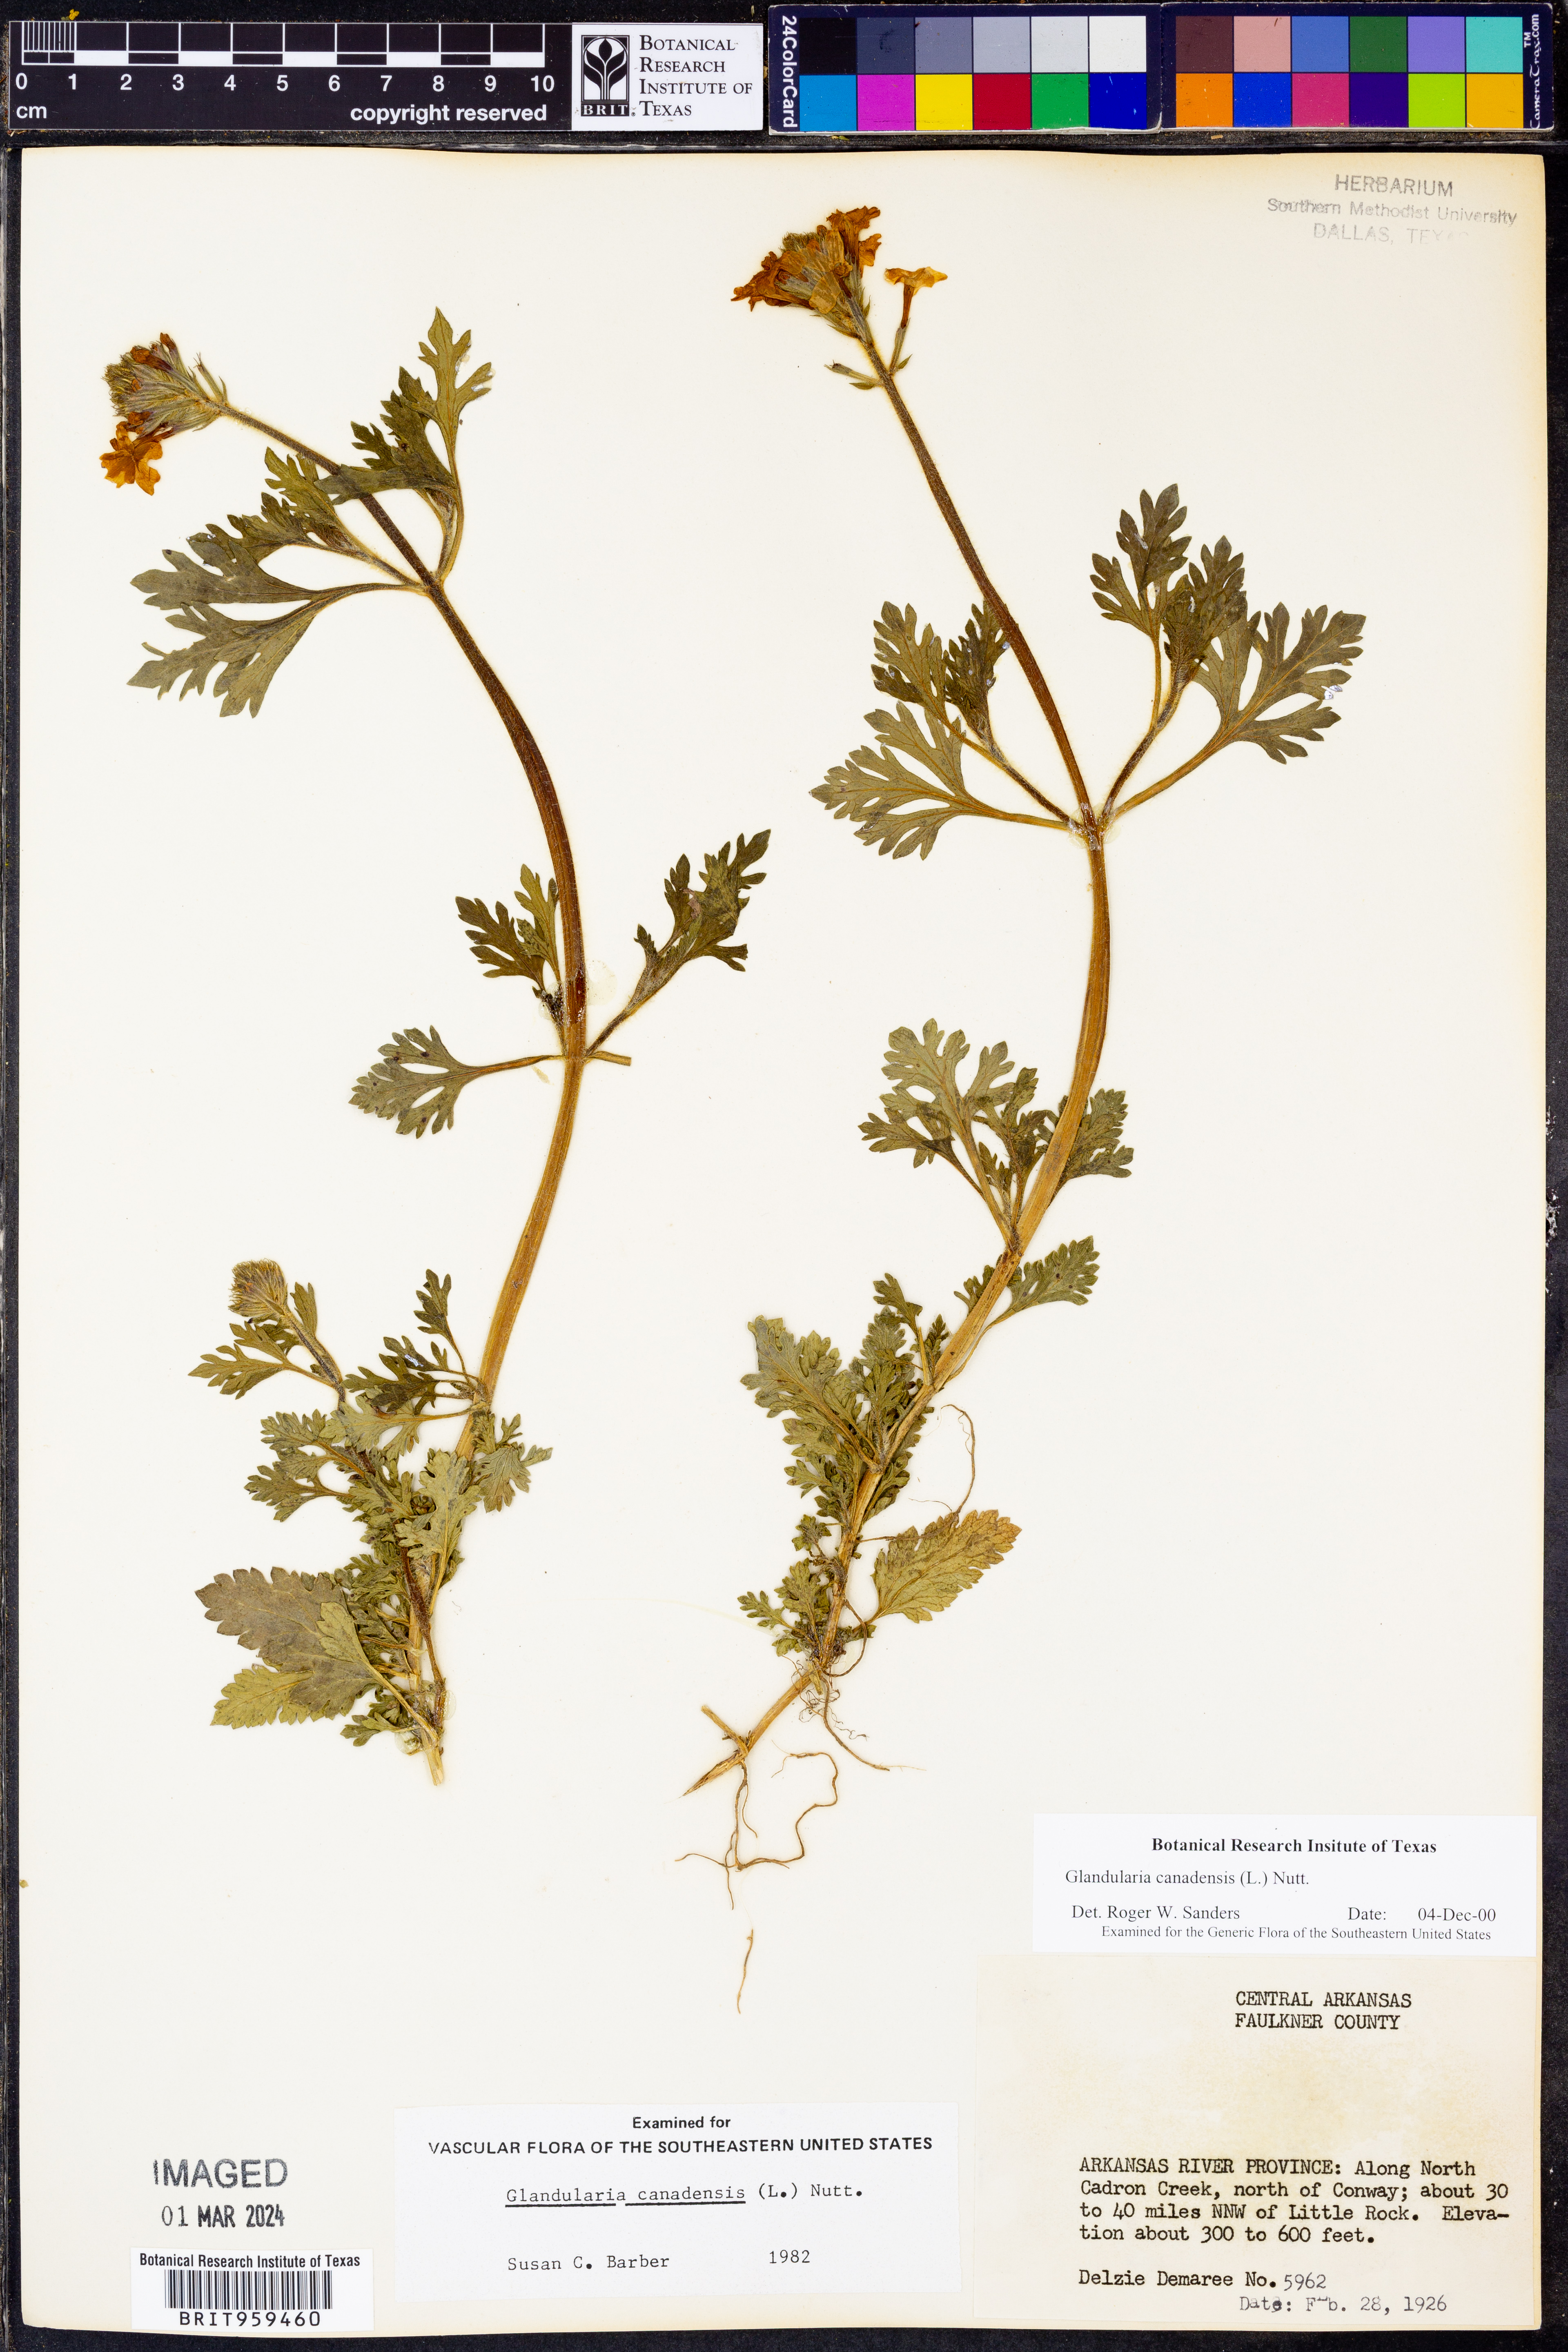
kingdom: Plantae
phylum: Tracheophyta
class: Magnoliopsida
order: Lamiales
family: Verbenaceae
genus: Verbena
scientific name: Verbena canadensis
